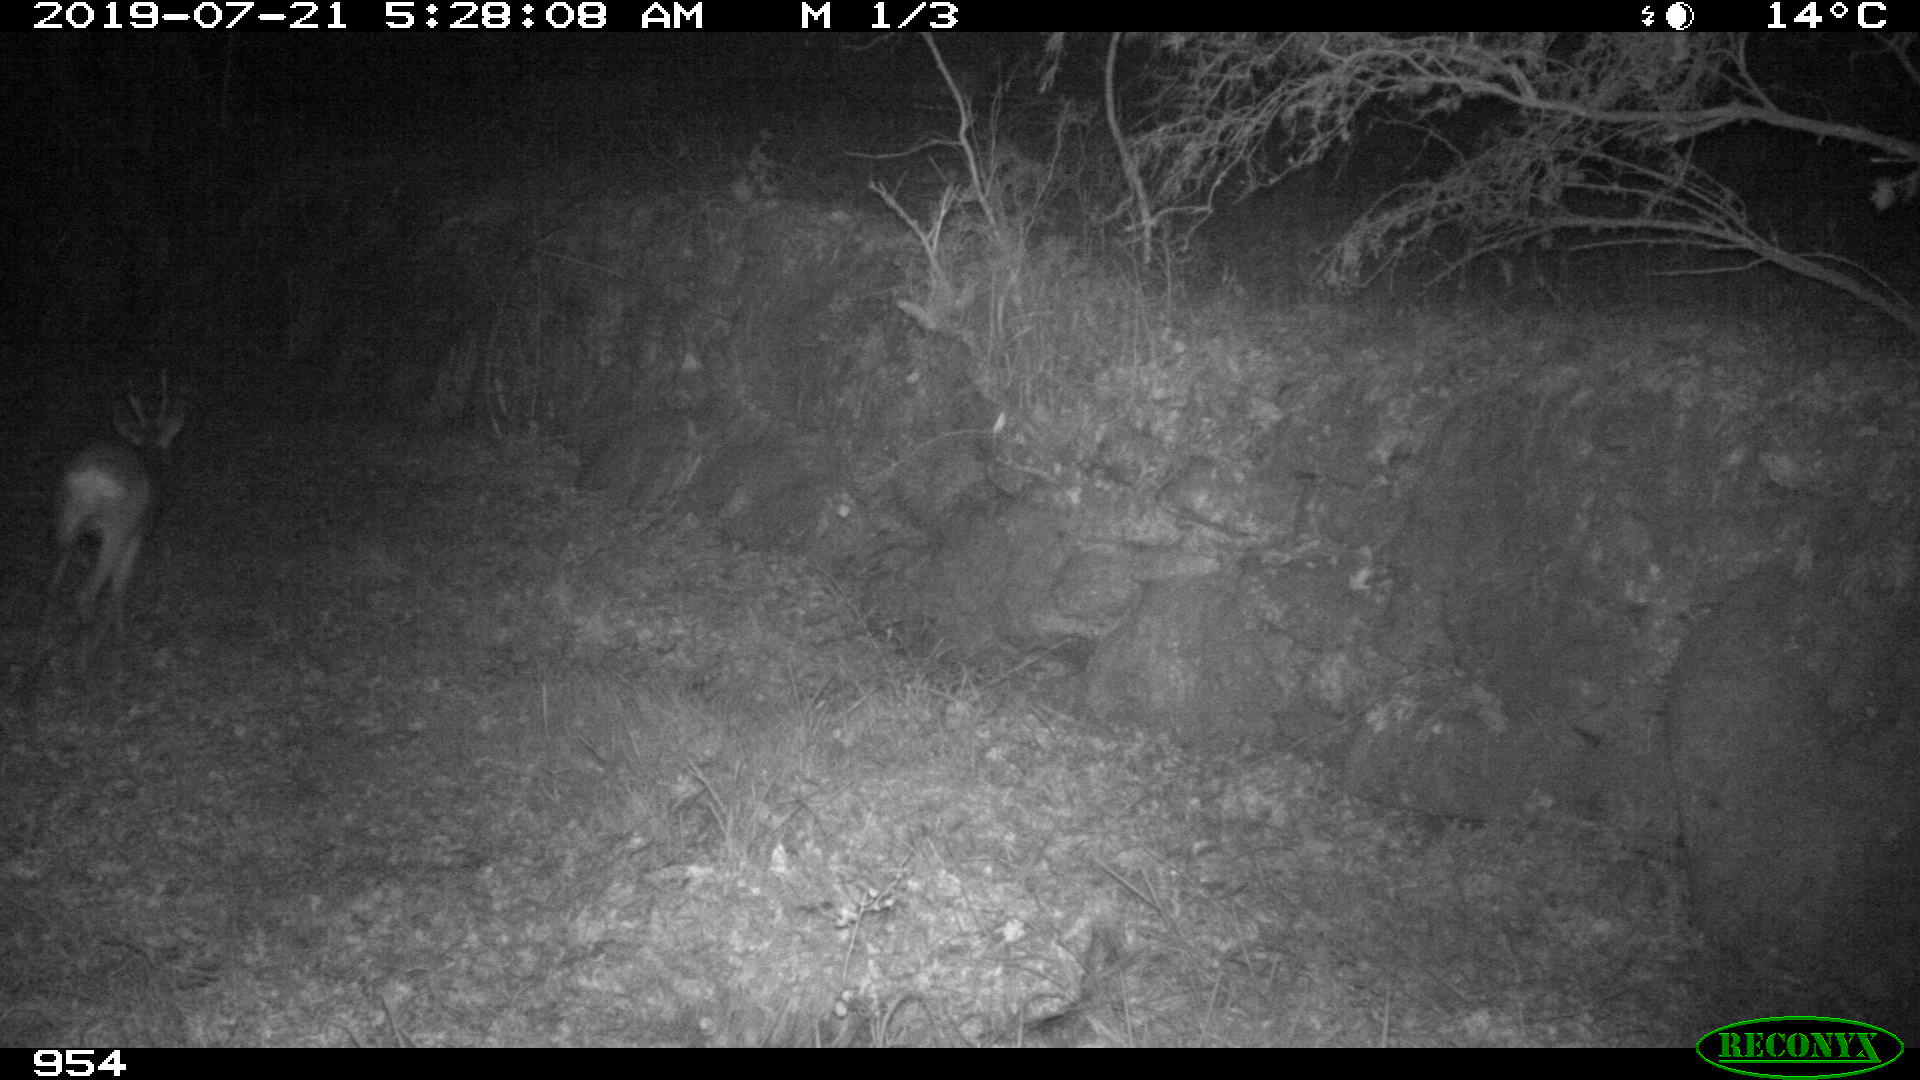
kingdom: Animalia
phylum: Chordata
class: Mammalia
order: Artiodactyla
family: Cervidae
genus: Capreolus
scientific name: Capreolus capreolus
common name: Western roe deer
